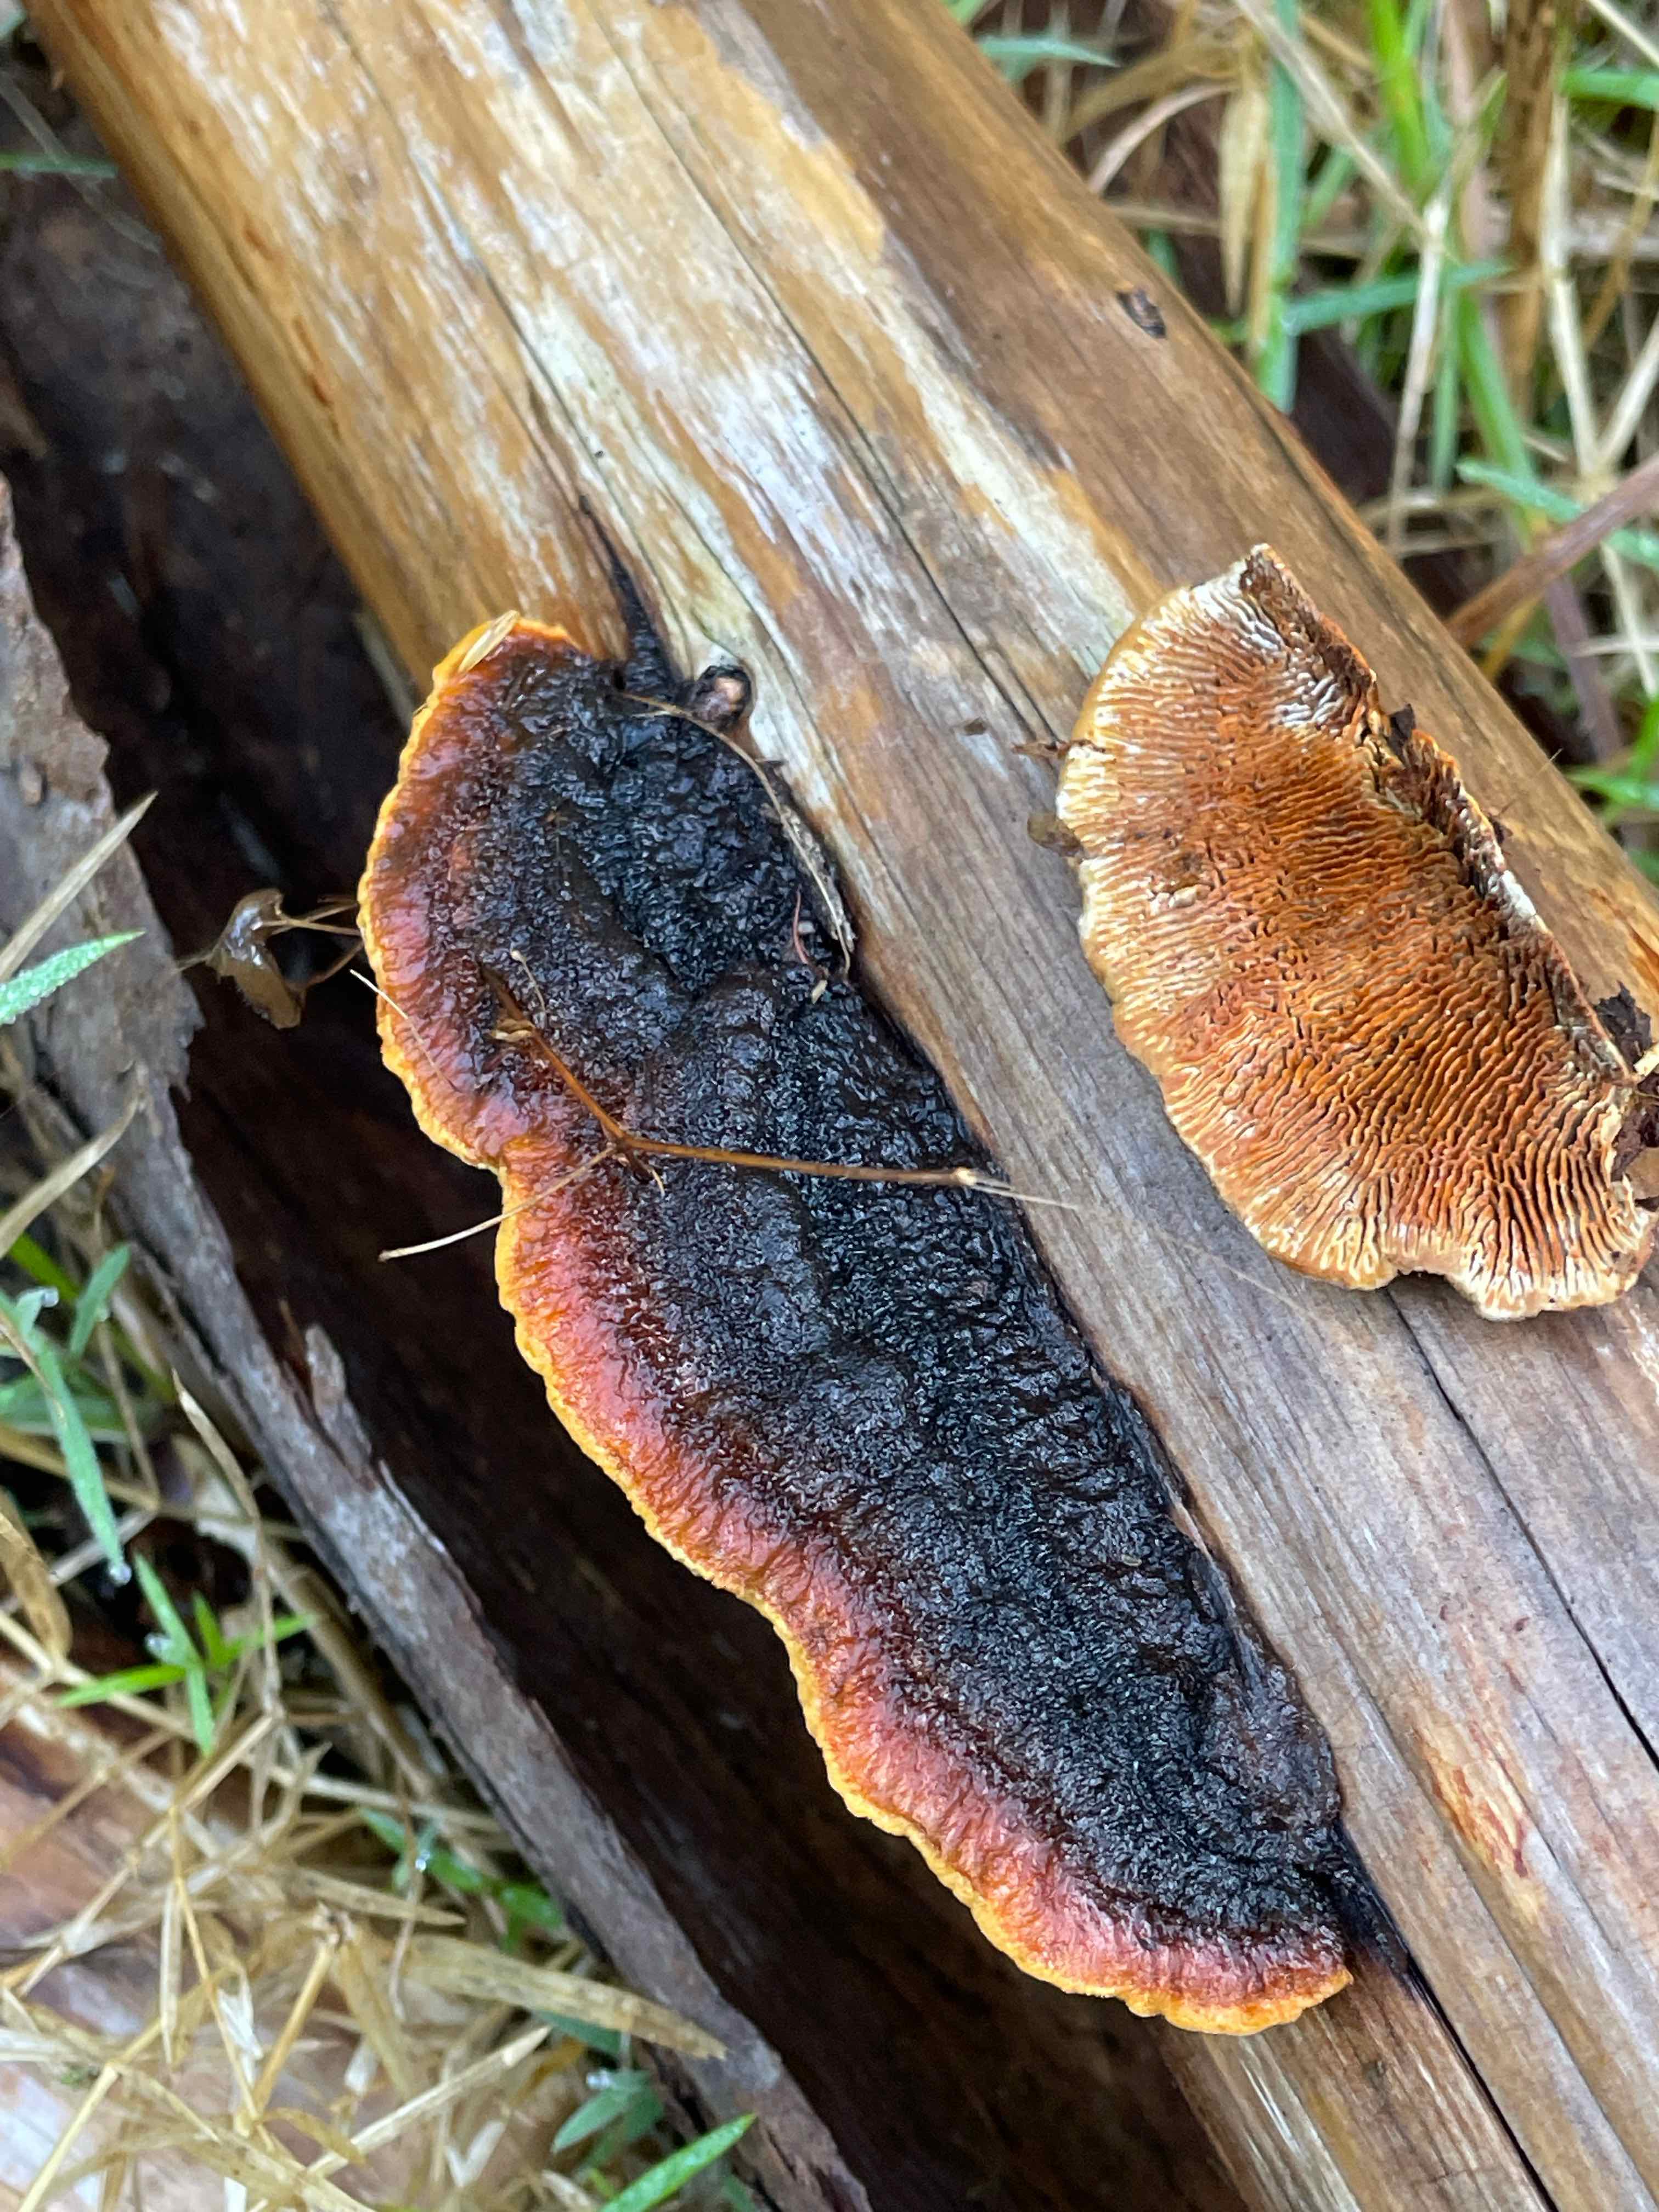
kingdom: Fungi
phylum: Basidiomycota
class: Agaricomycetes
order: Gloeophyllales
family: Gloeophyllaceae
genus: Gloeophyllum
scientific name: Gloeophyllum sepiarium
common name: fyrre-korkhat
